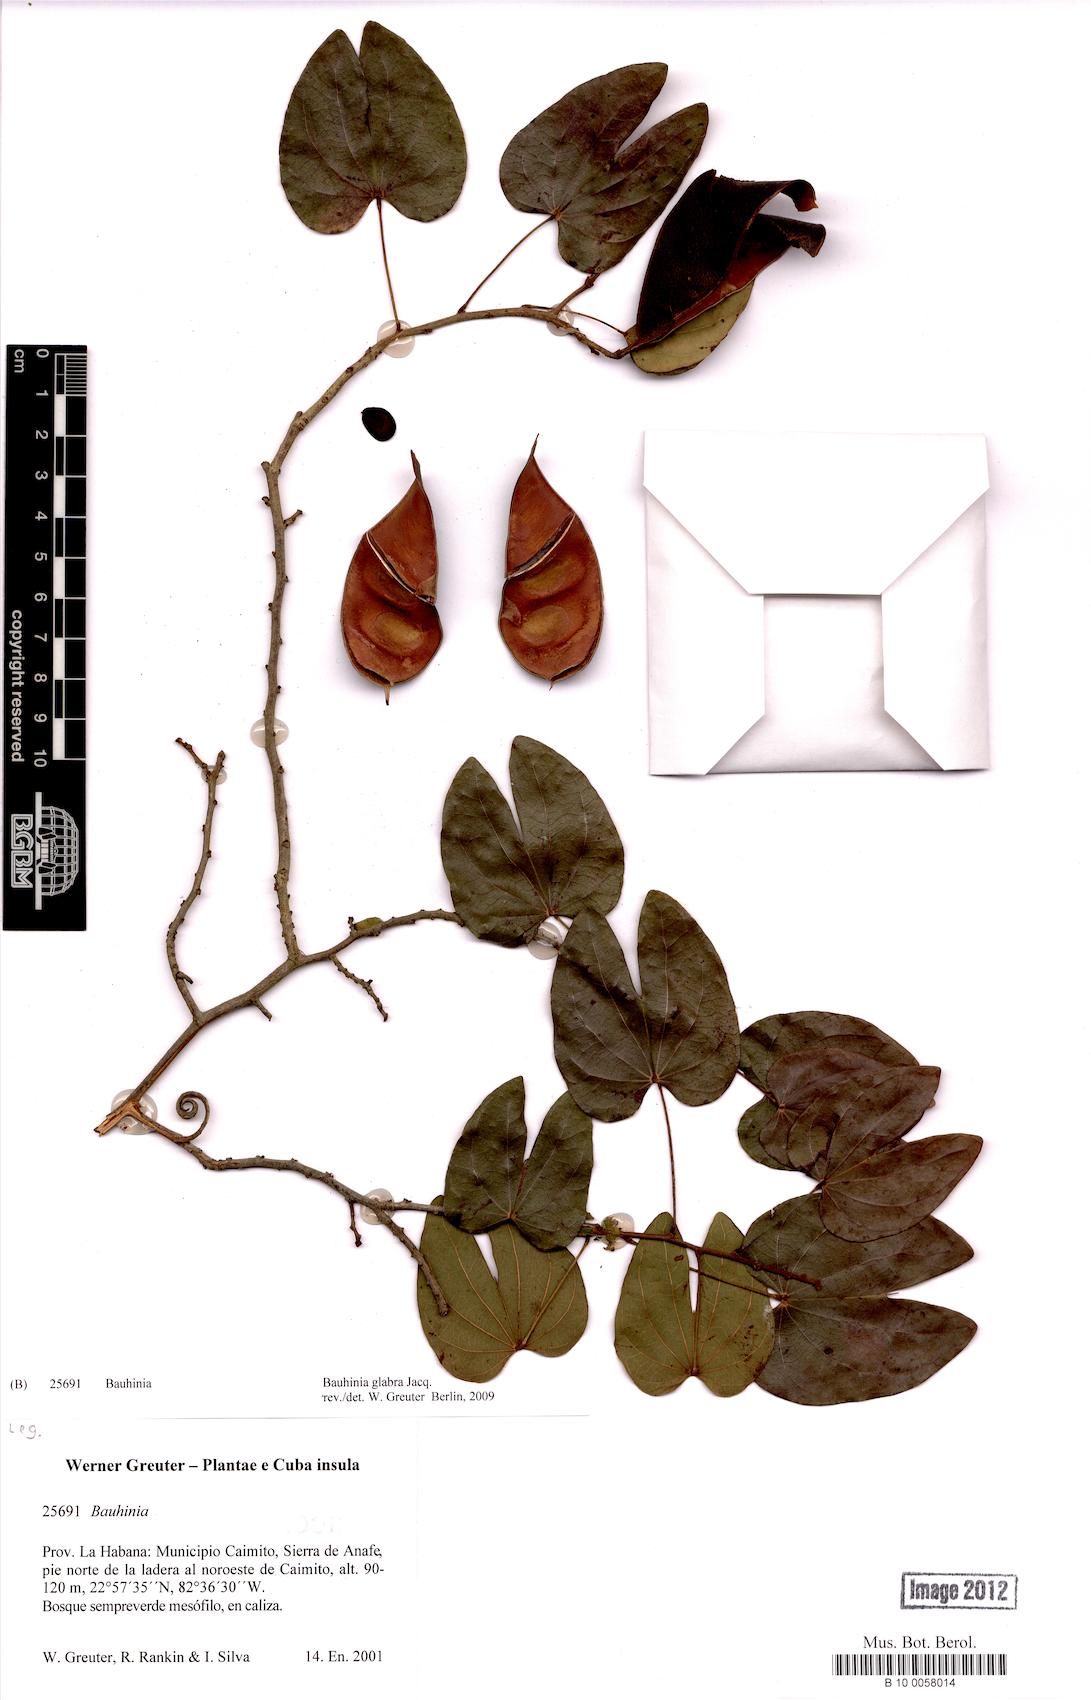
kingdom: Plantae
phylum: Tracheophyta
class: Magnoliopsida
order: Fabales
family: Fabaceae
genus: Schnella
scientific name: Schnella glabra
